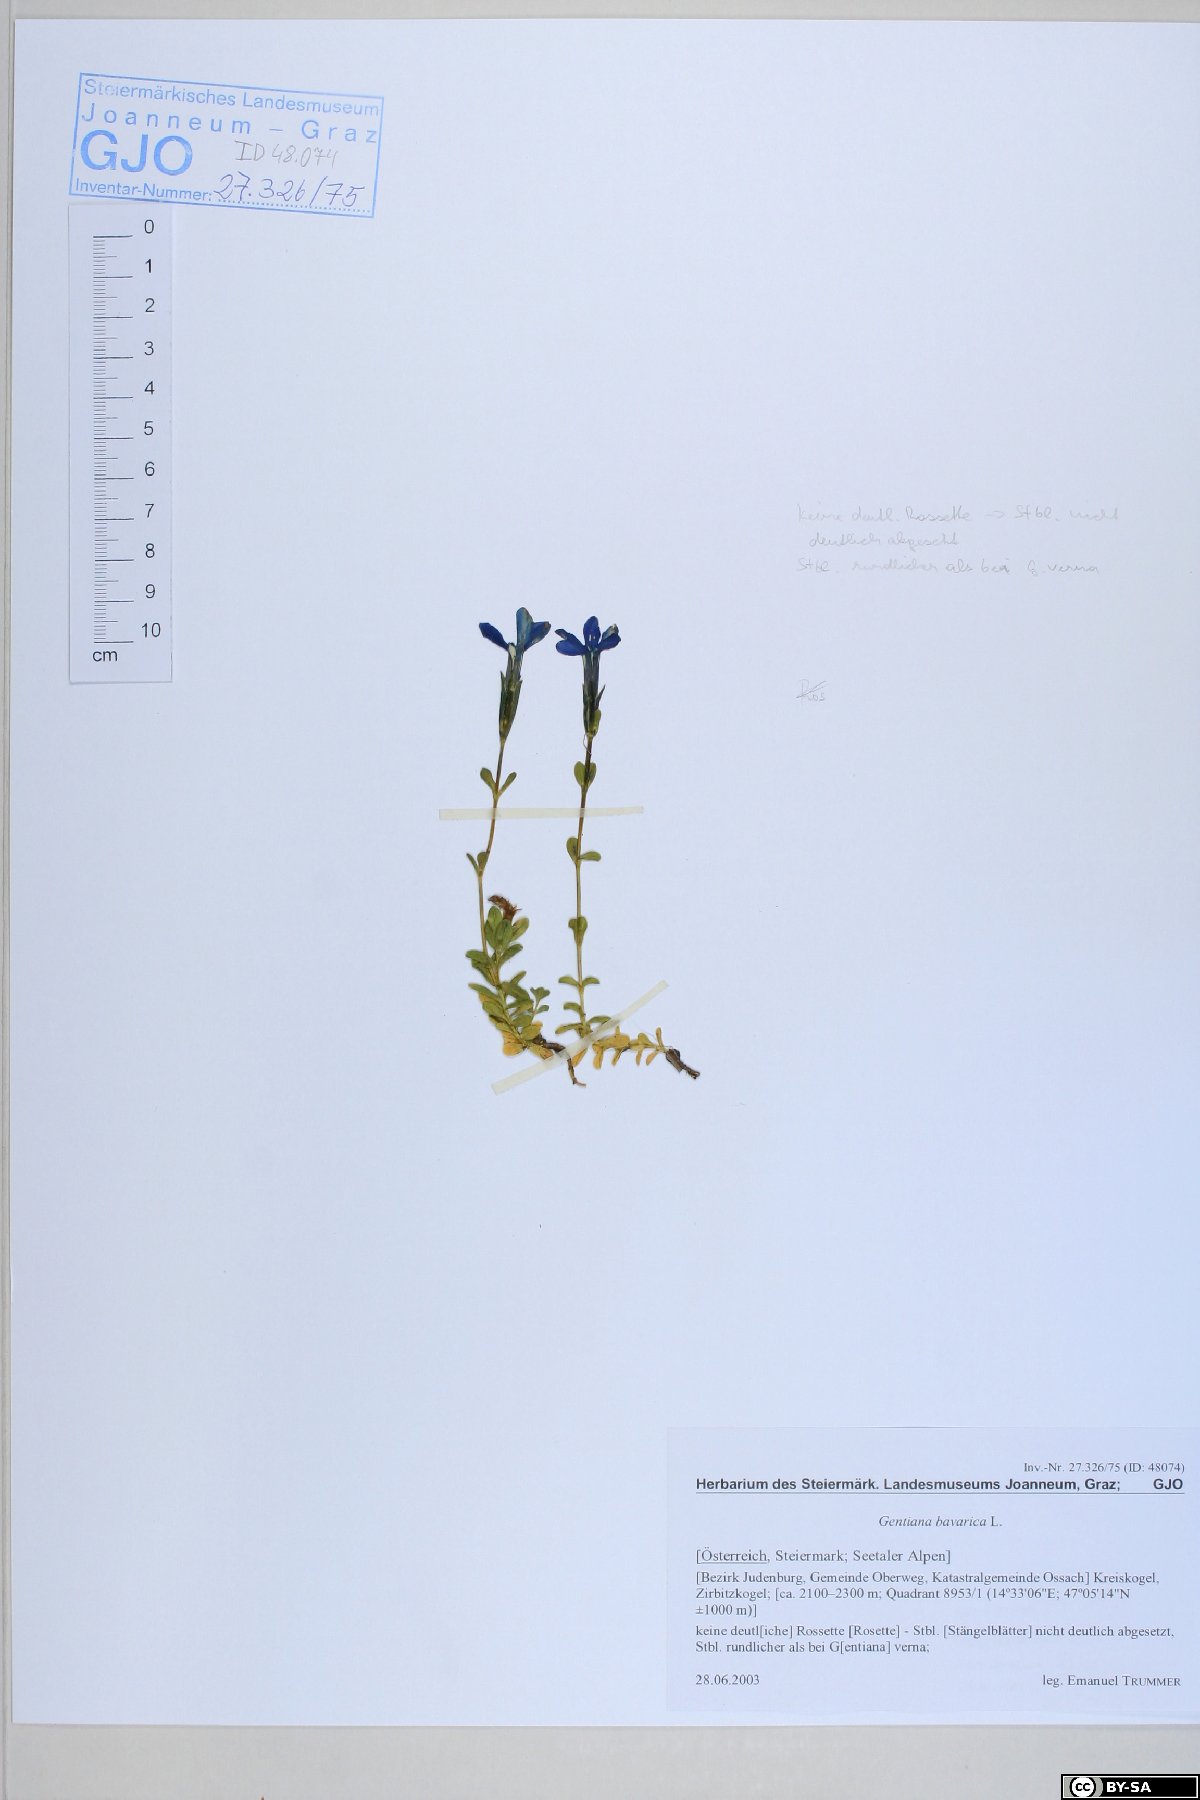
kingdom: Plantae
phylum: Tracheophyta
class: Magnoliopsida
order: Gentianales
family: Gentianaceae
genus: Gentiana
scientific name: Gentiana bavarica
